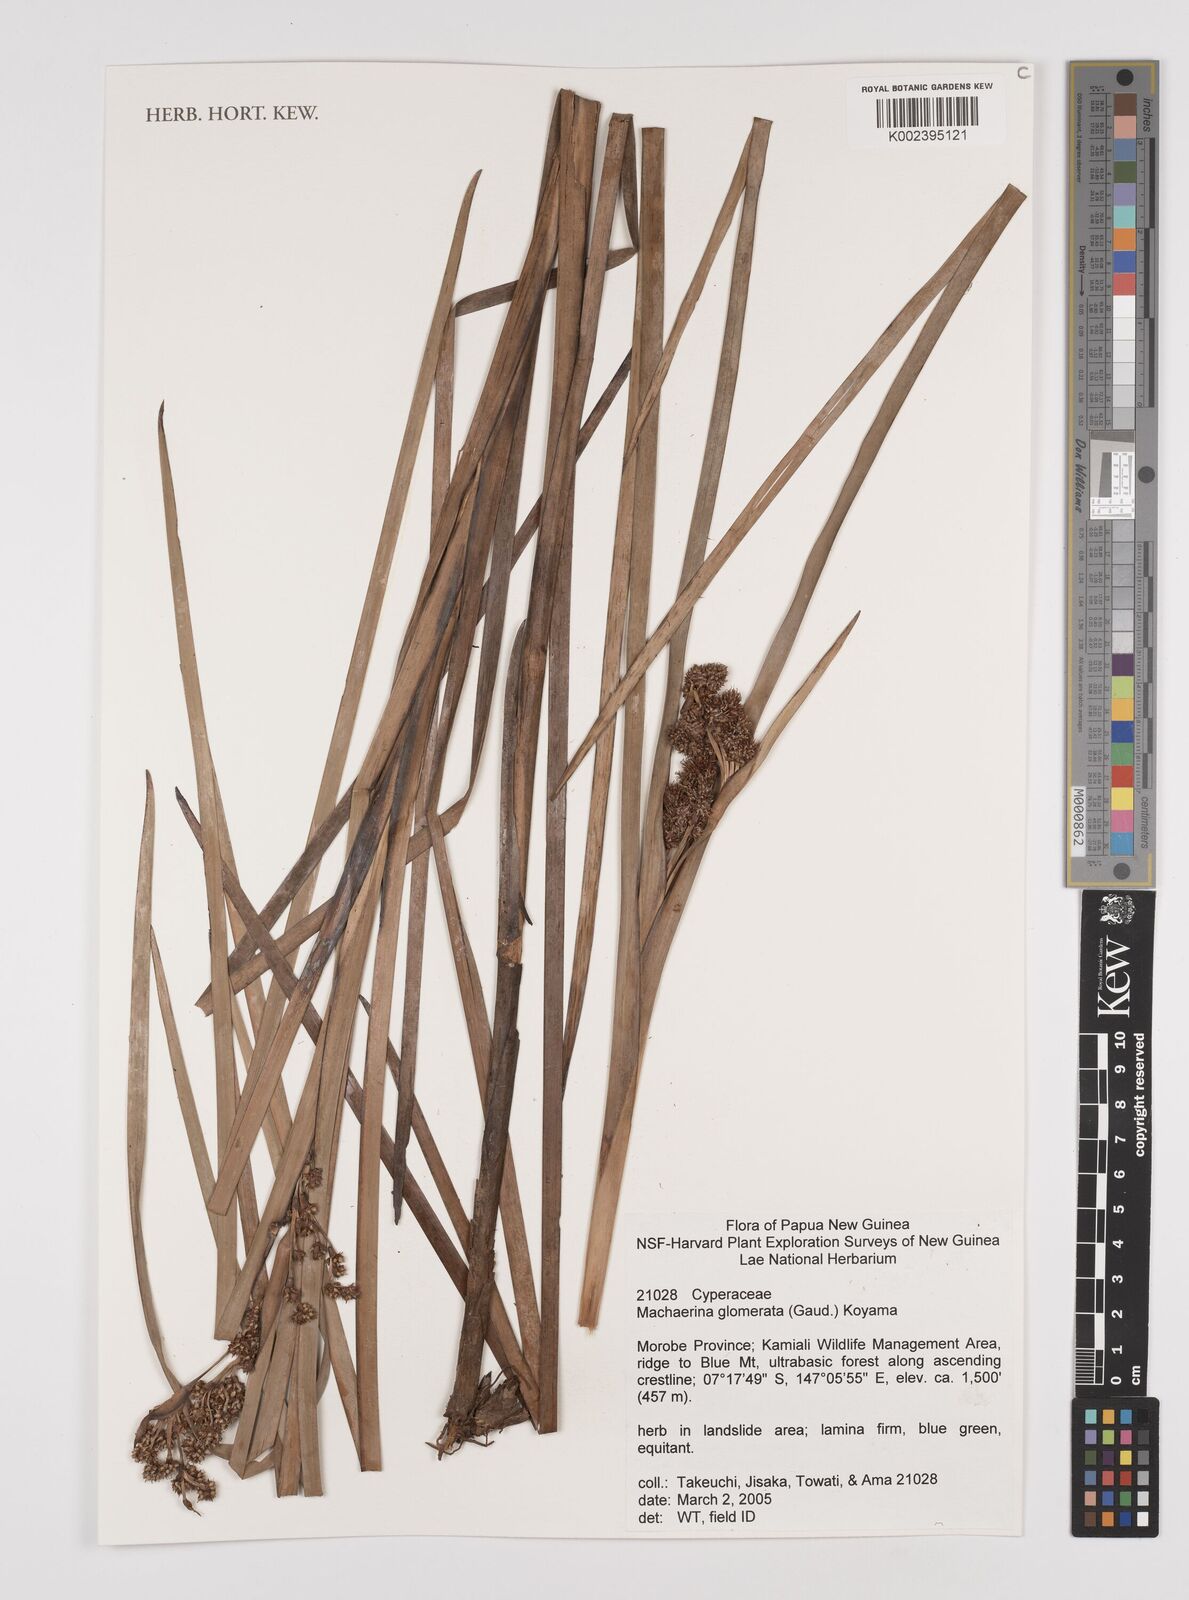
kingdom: Plantae
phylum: Tracheophyta
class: Liliopsida
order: Poales
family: Cyperaceae
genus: Machaerina
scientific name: Machaerina glomerata
